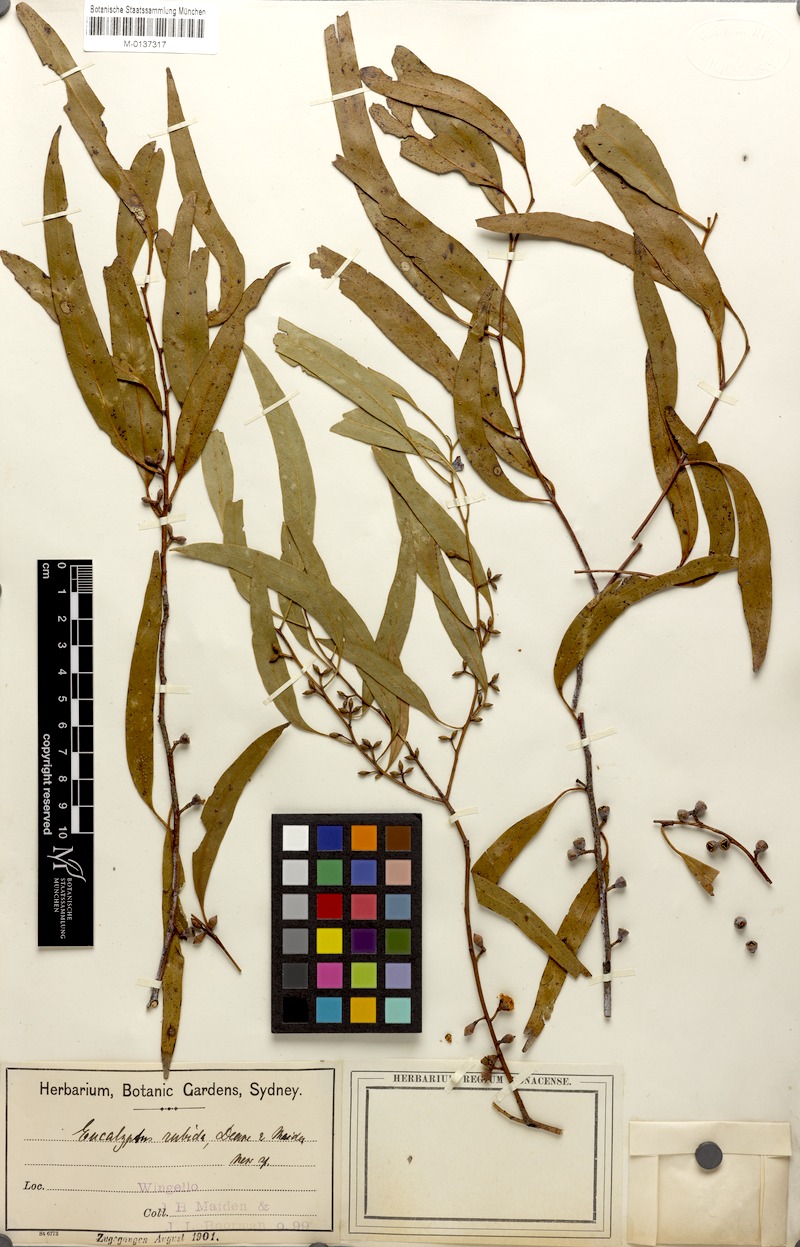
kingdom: Plantae
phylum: Tracheophyta
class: Magnoliopsida
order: Myrtales
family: Myrtaceae
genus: Eucalyptus
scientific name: Eucalyptus rubida
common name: Candlebark
